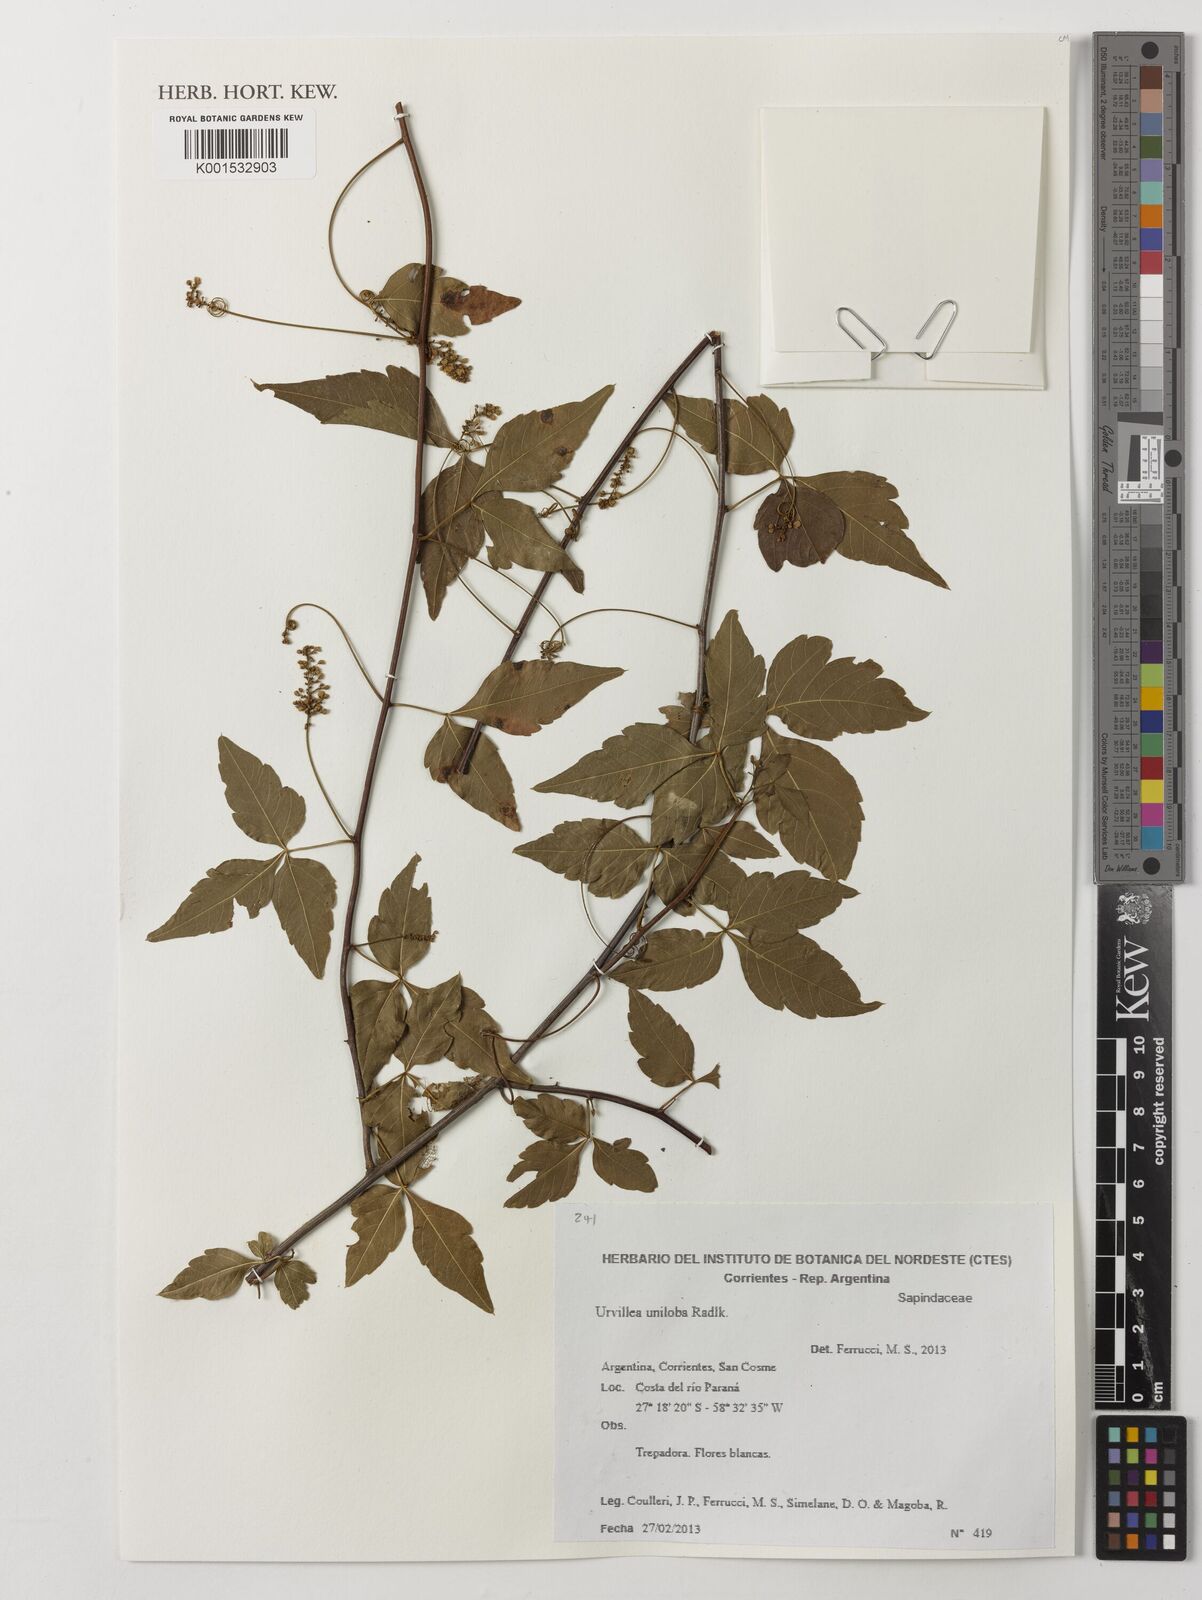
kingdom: Plantae
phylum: Tracheophyta
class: Magnoliopsida
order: Sapindales
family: Sapindaceae
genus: Urvillea
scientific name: Urvillea uniloba
